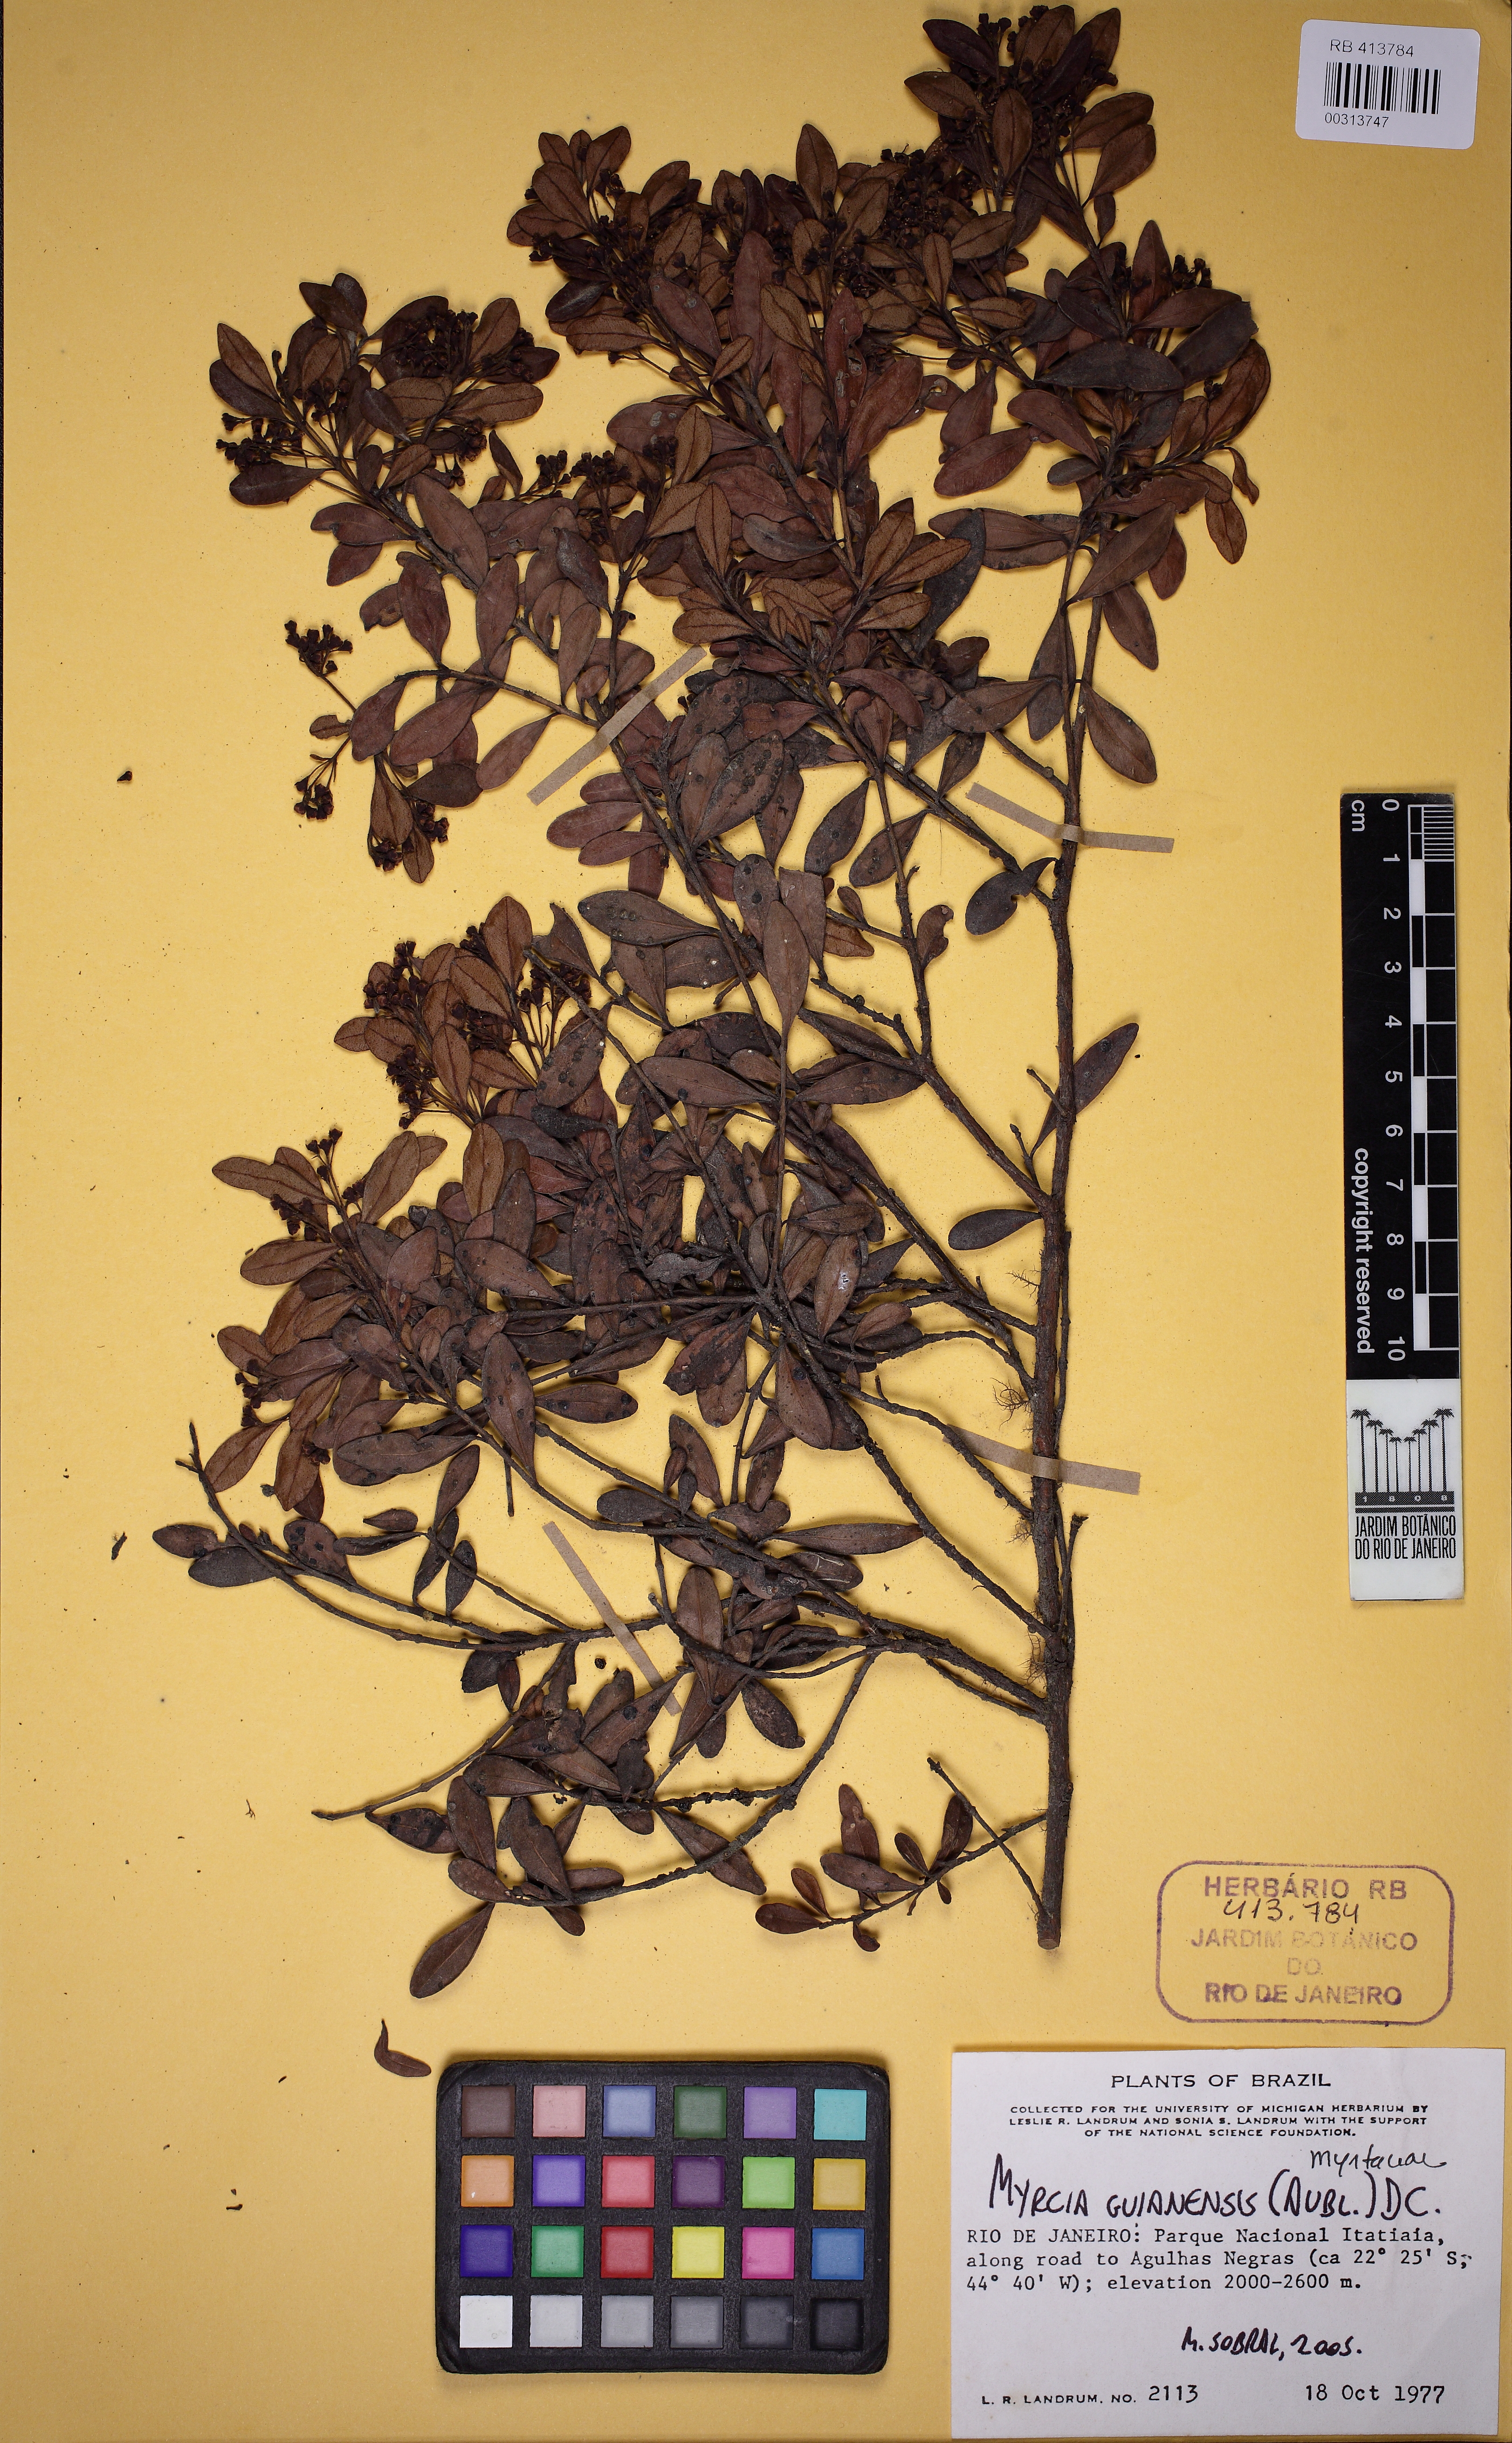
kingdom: Plantae
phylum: Tracheophyta
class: Magnoliopsida
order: Myrtales
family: Myrtaceae
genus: Myrcia
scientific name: Myrcia guianensis
